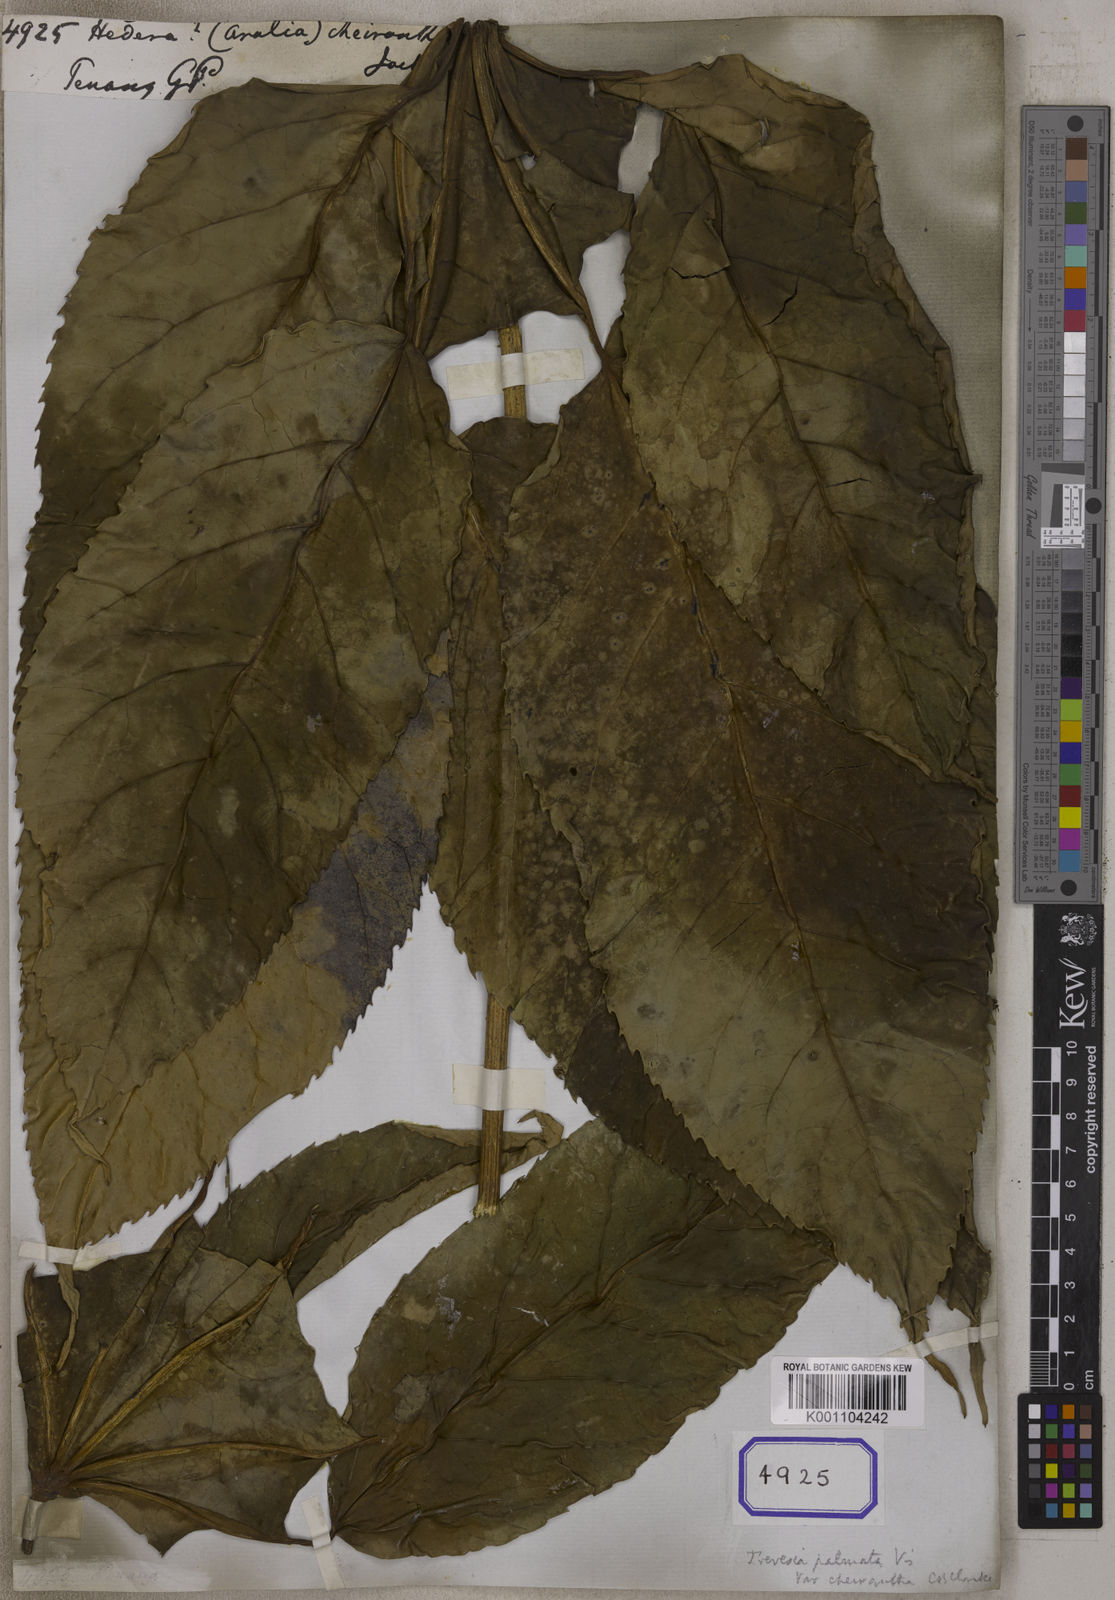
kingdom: Plantae
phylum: Tracheophyta
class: Magnoliopsida
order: Apiales
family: Araliaceae
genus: Hedera
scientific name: Hedera
